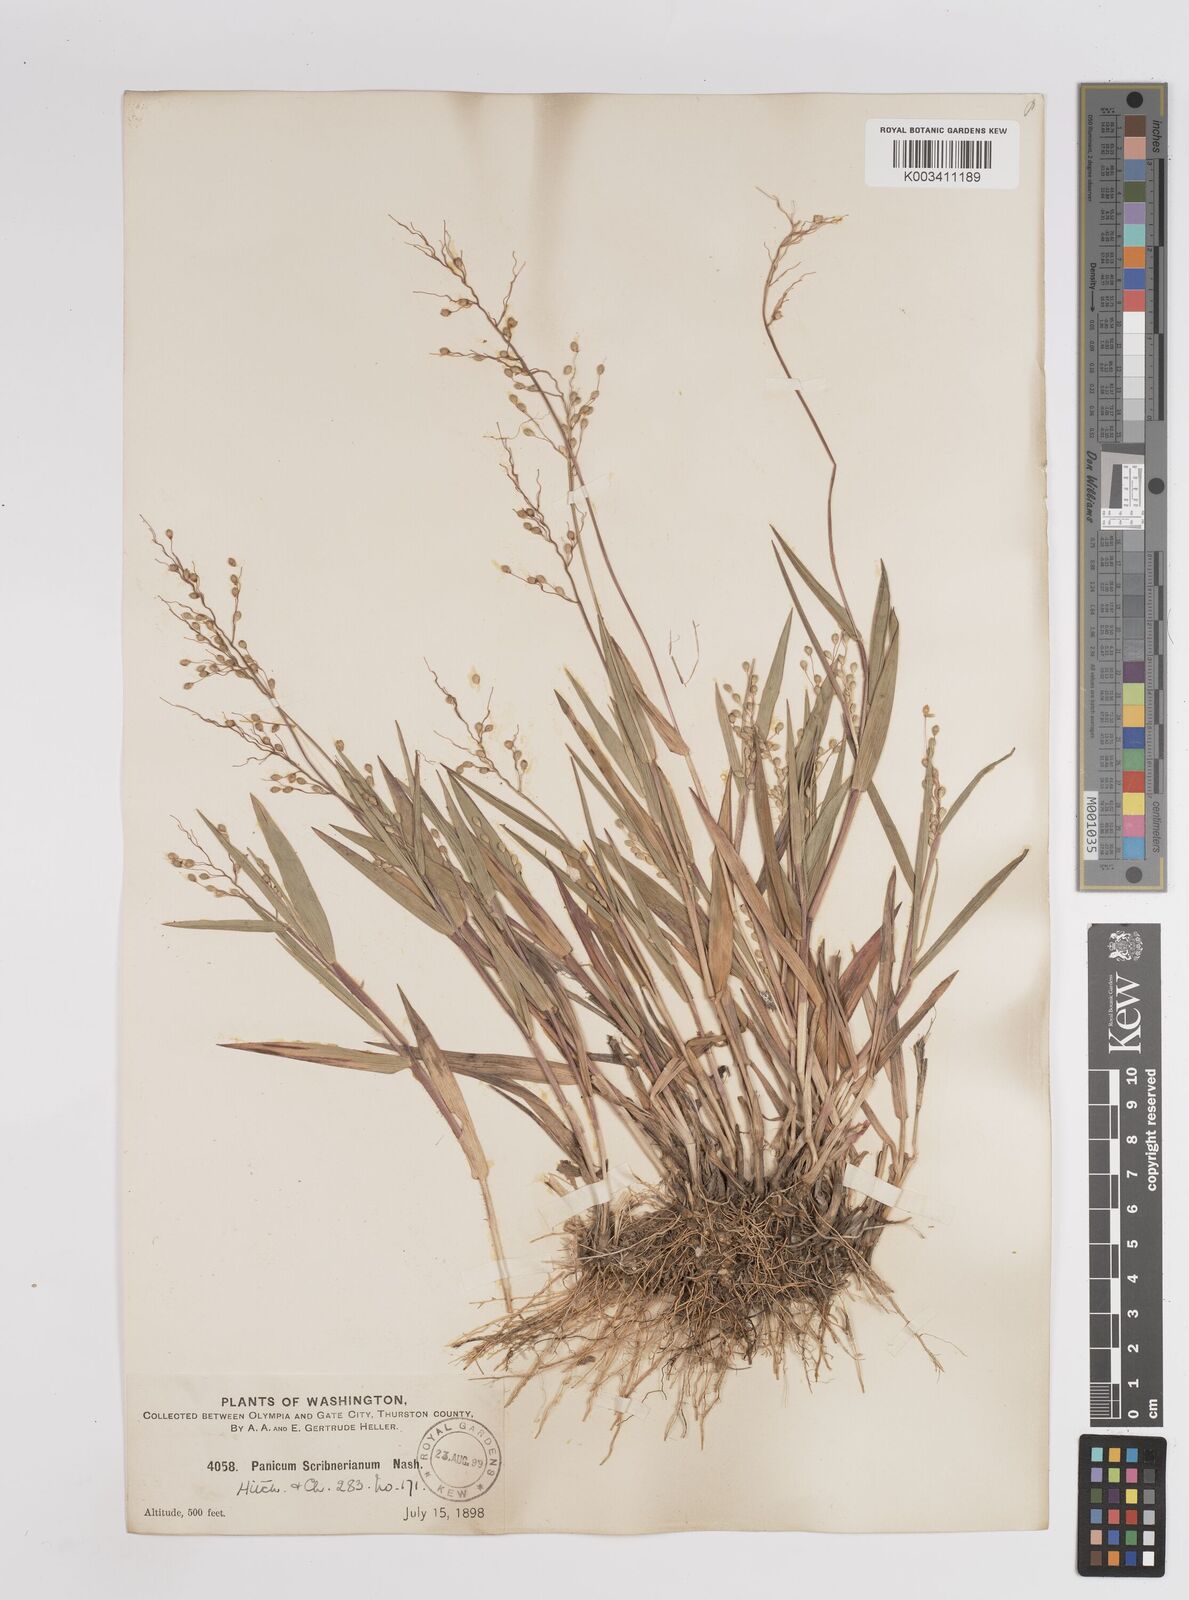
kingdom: Plantae
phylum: Tracheophyta
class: Liliopsida
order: Poales
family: Poaceae
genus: Dichanthelium
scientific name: Dichanthelium oligosanthes
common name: Few-anther obscuregrass
